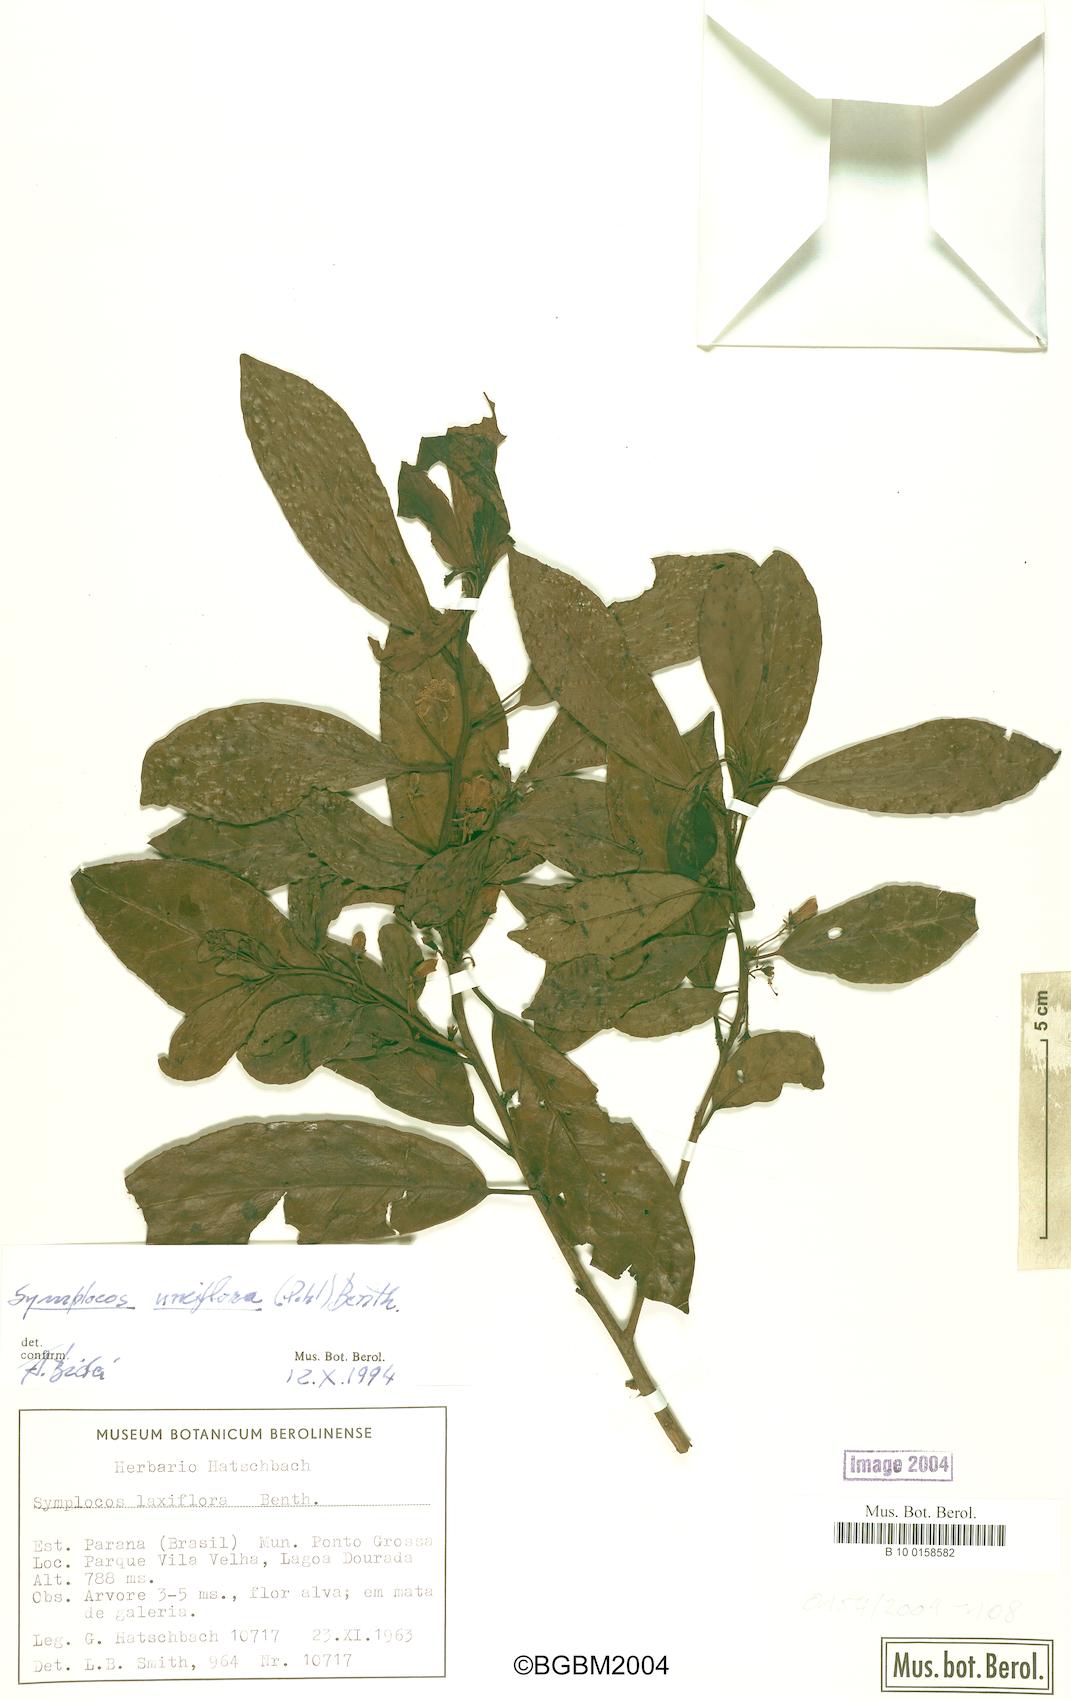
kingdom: Plantae
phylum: Tracheophyta
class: Magnoliopsida
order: Ericales
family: Symplocaceae
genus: Symplocos
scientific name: Symplocos laxiflora
